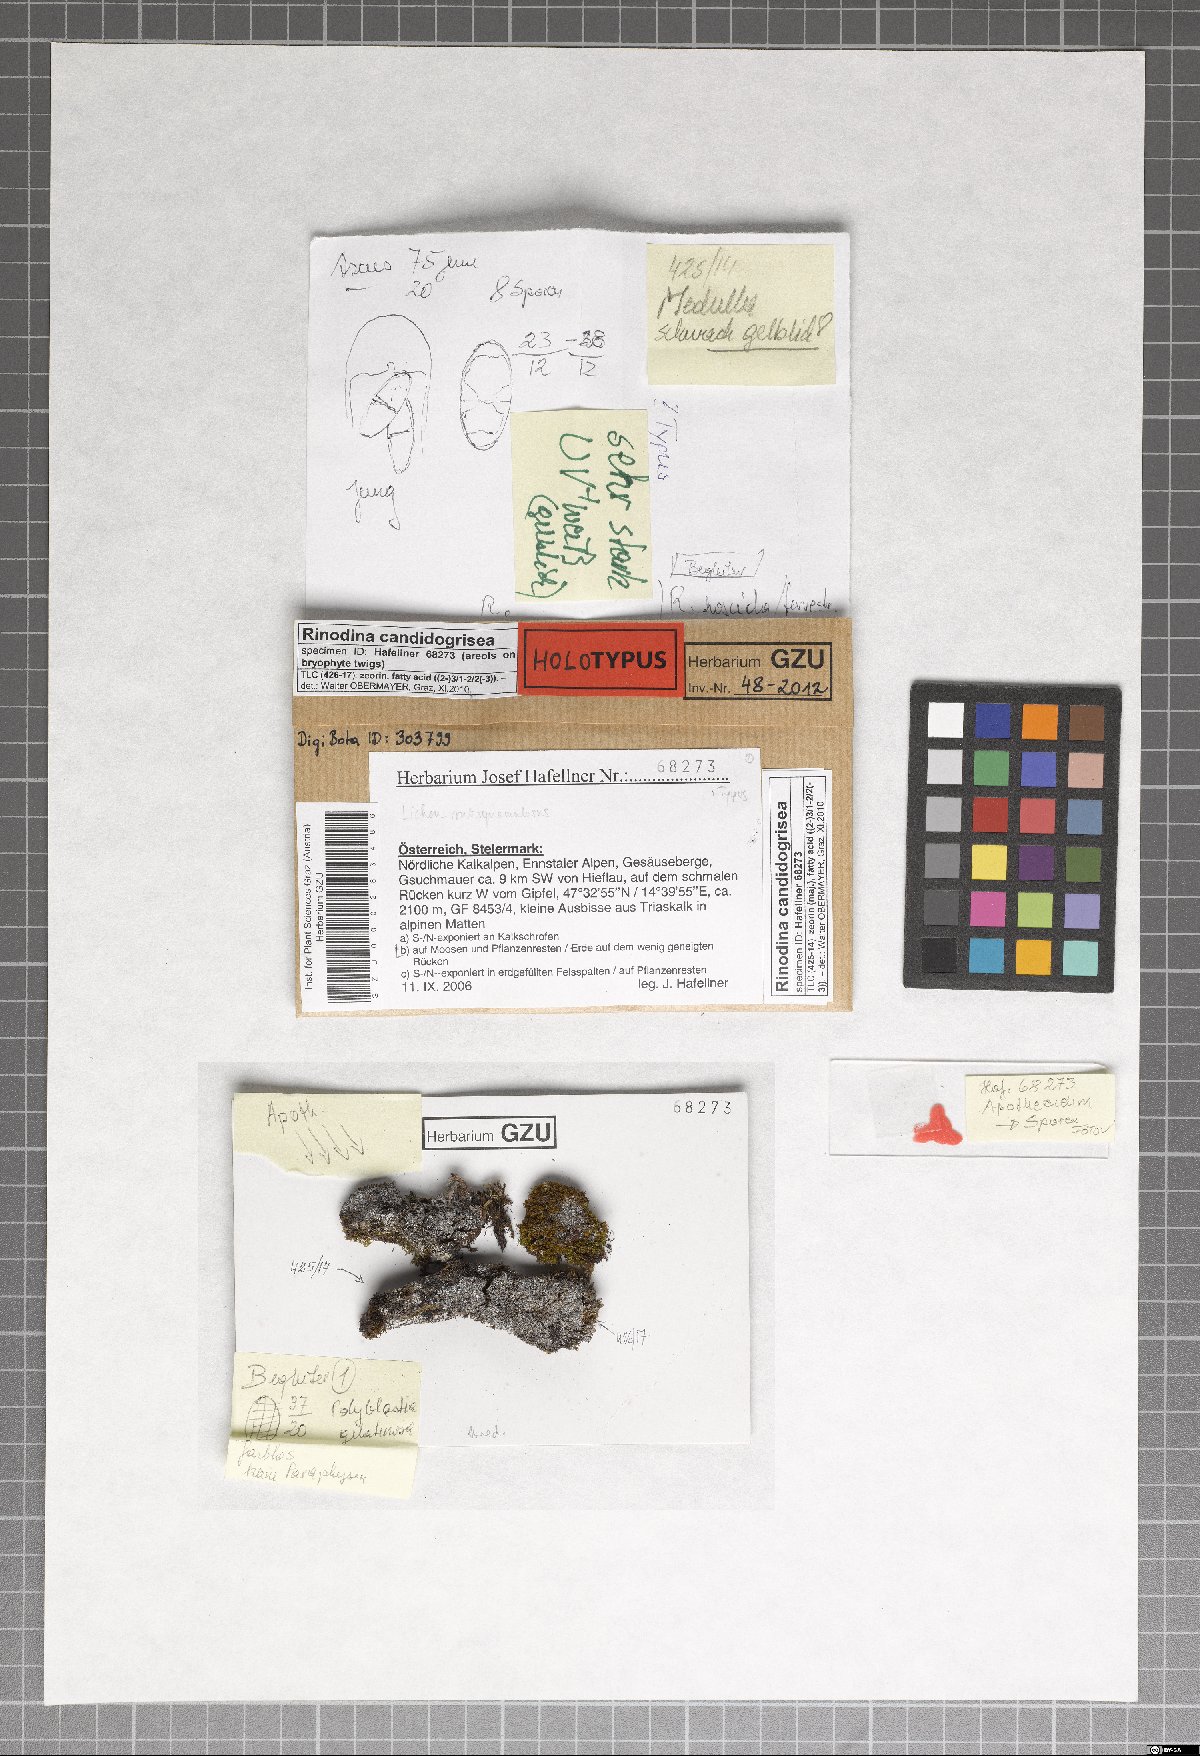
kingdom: Fungi
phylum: Ascomycota
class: Lecanoromycetes
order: Caliciales
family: Physciaceae
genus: Kudratovia
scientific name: Kudratovia candidogrisea
